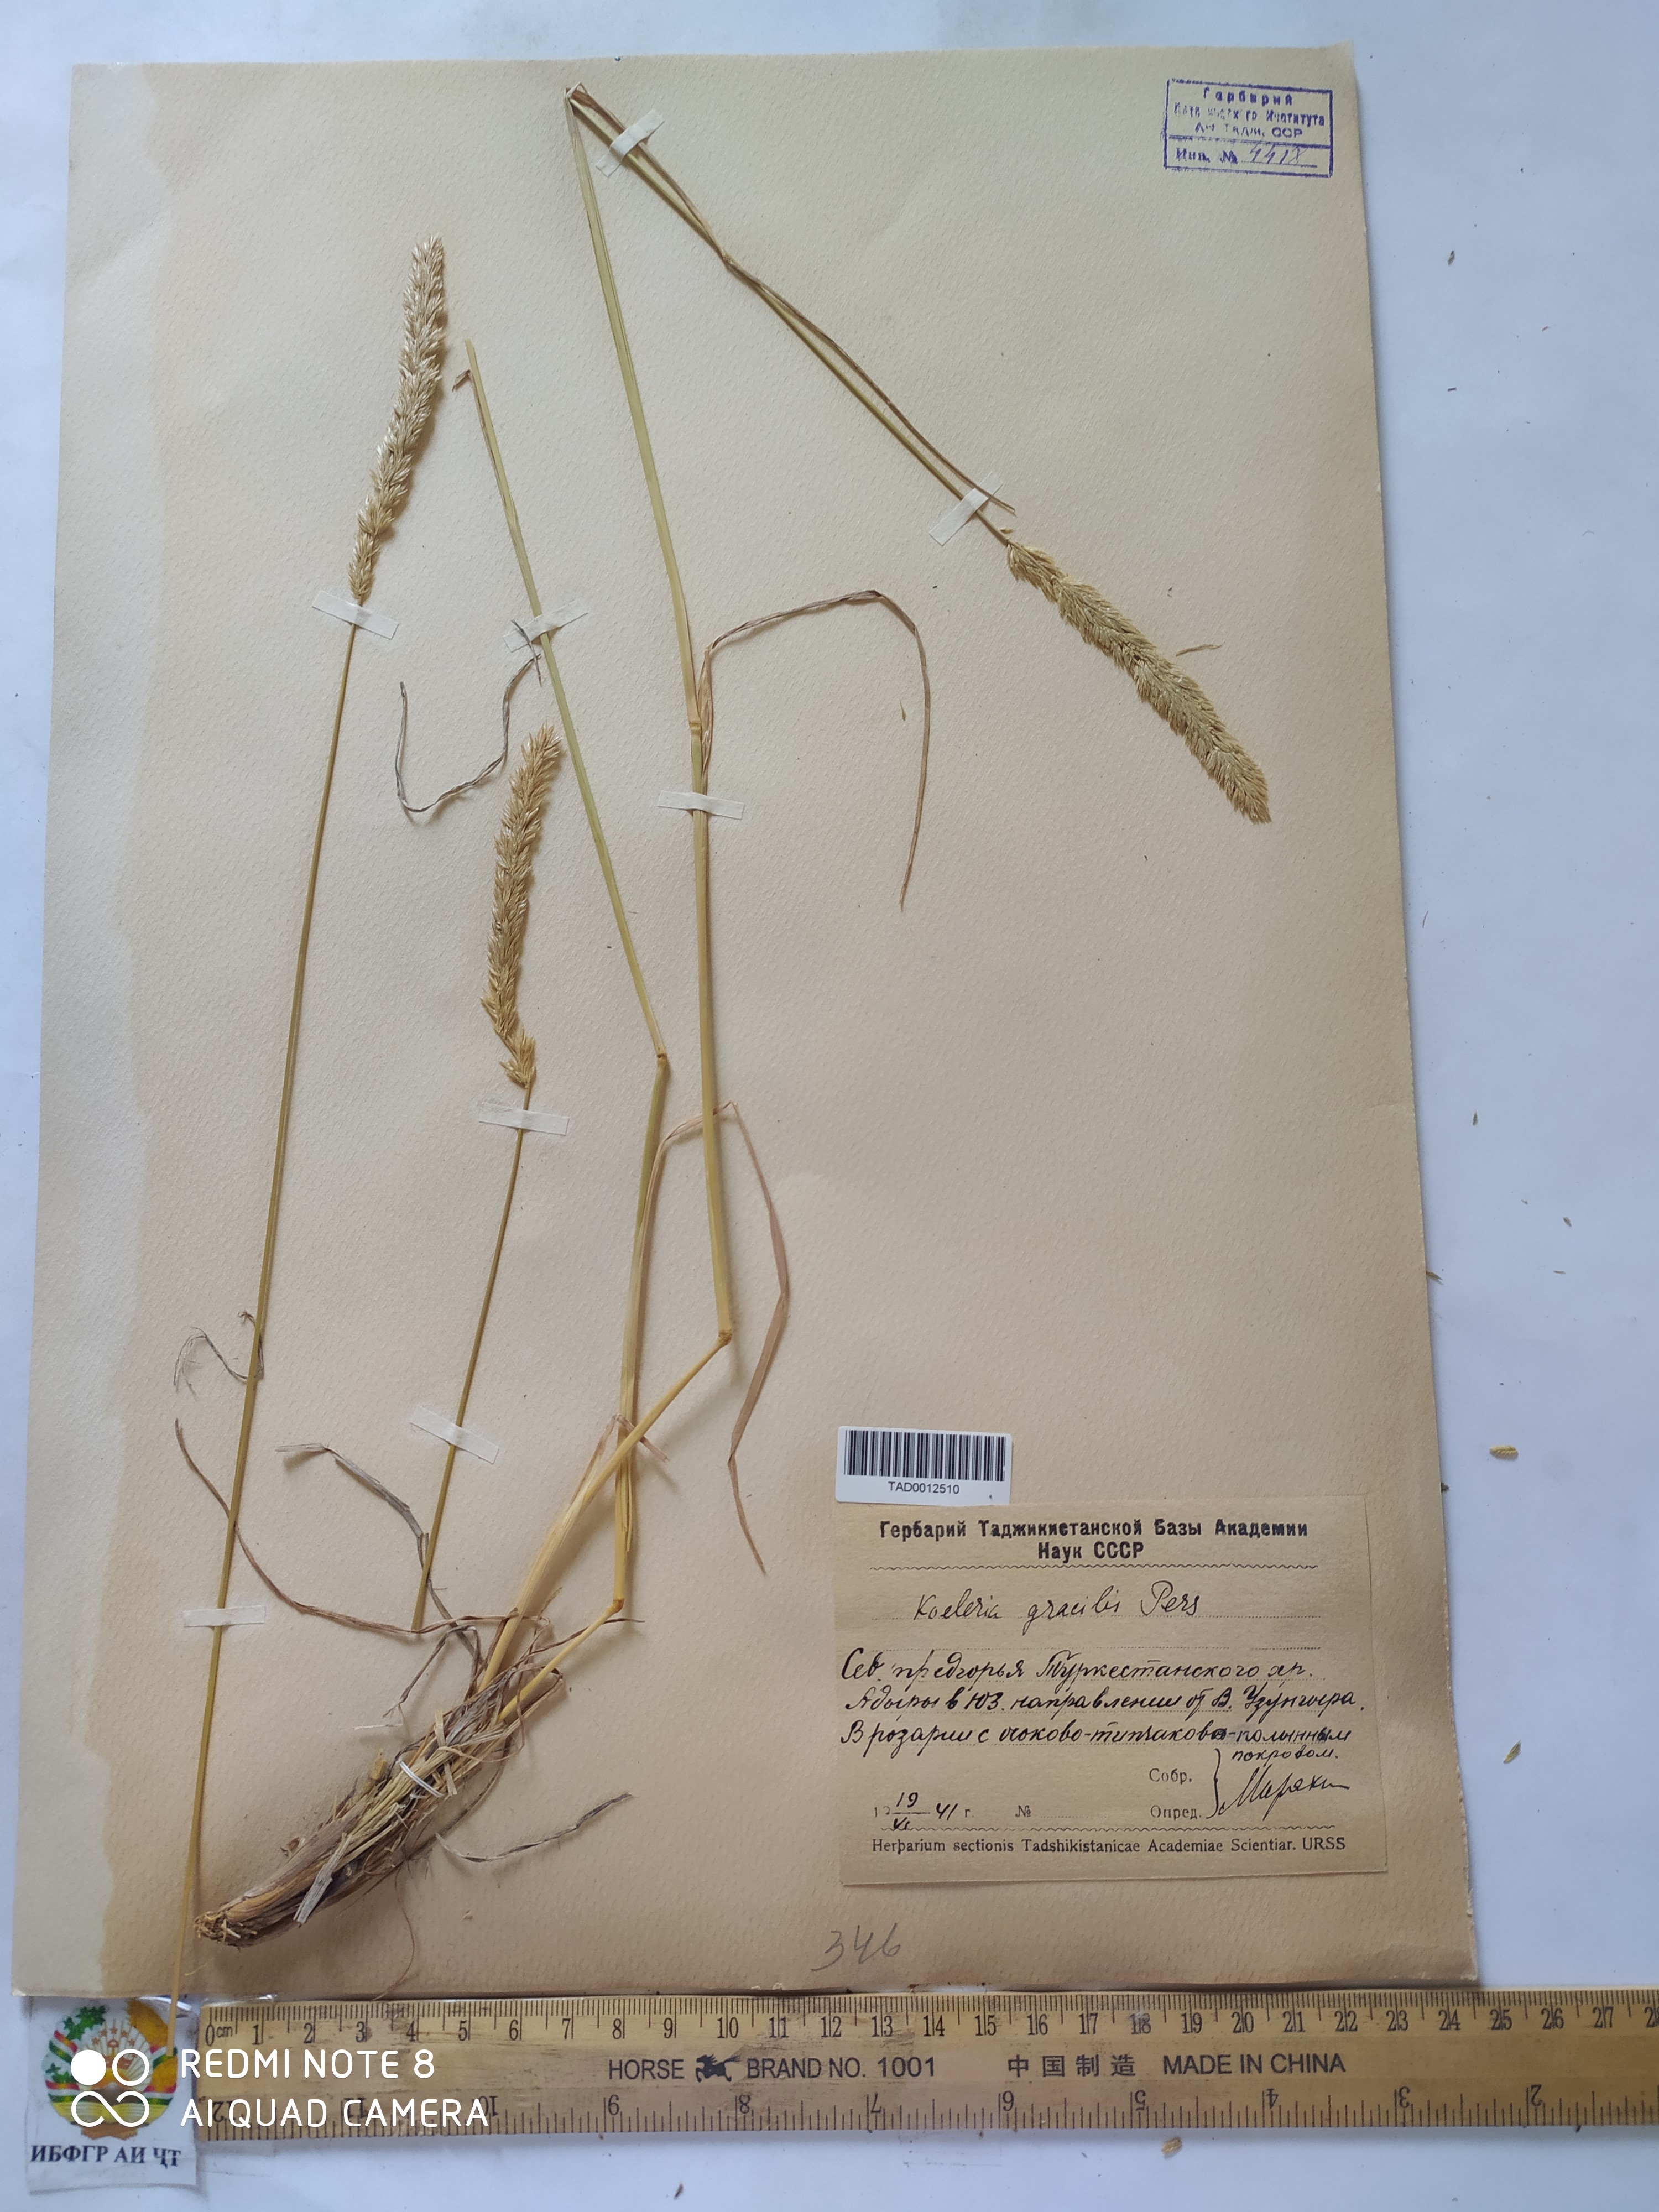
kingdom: Plantae
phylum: Tracheophyta
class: Liliopsida
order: Poales
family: Poaceae
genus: Koeleria
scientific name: Koeleria macrantha
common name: Crested hair-grass
